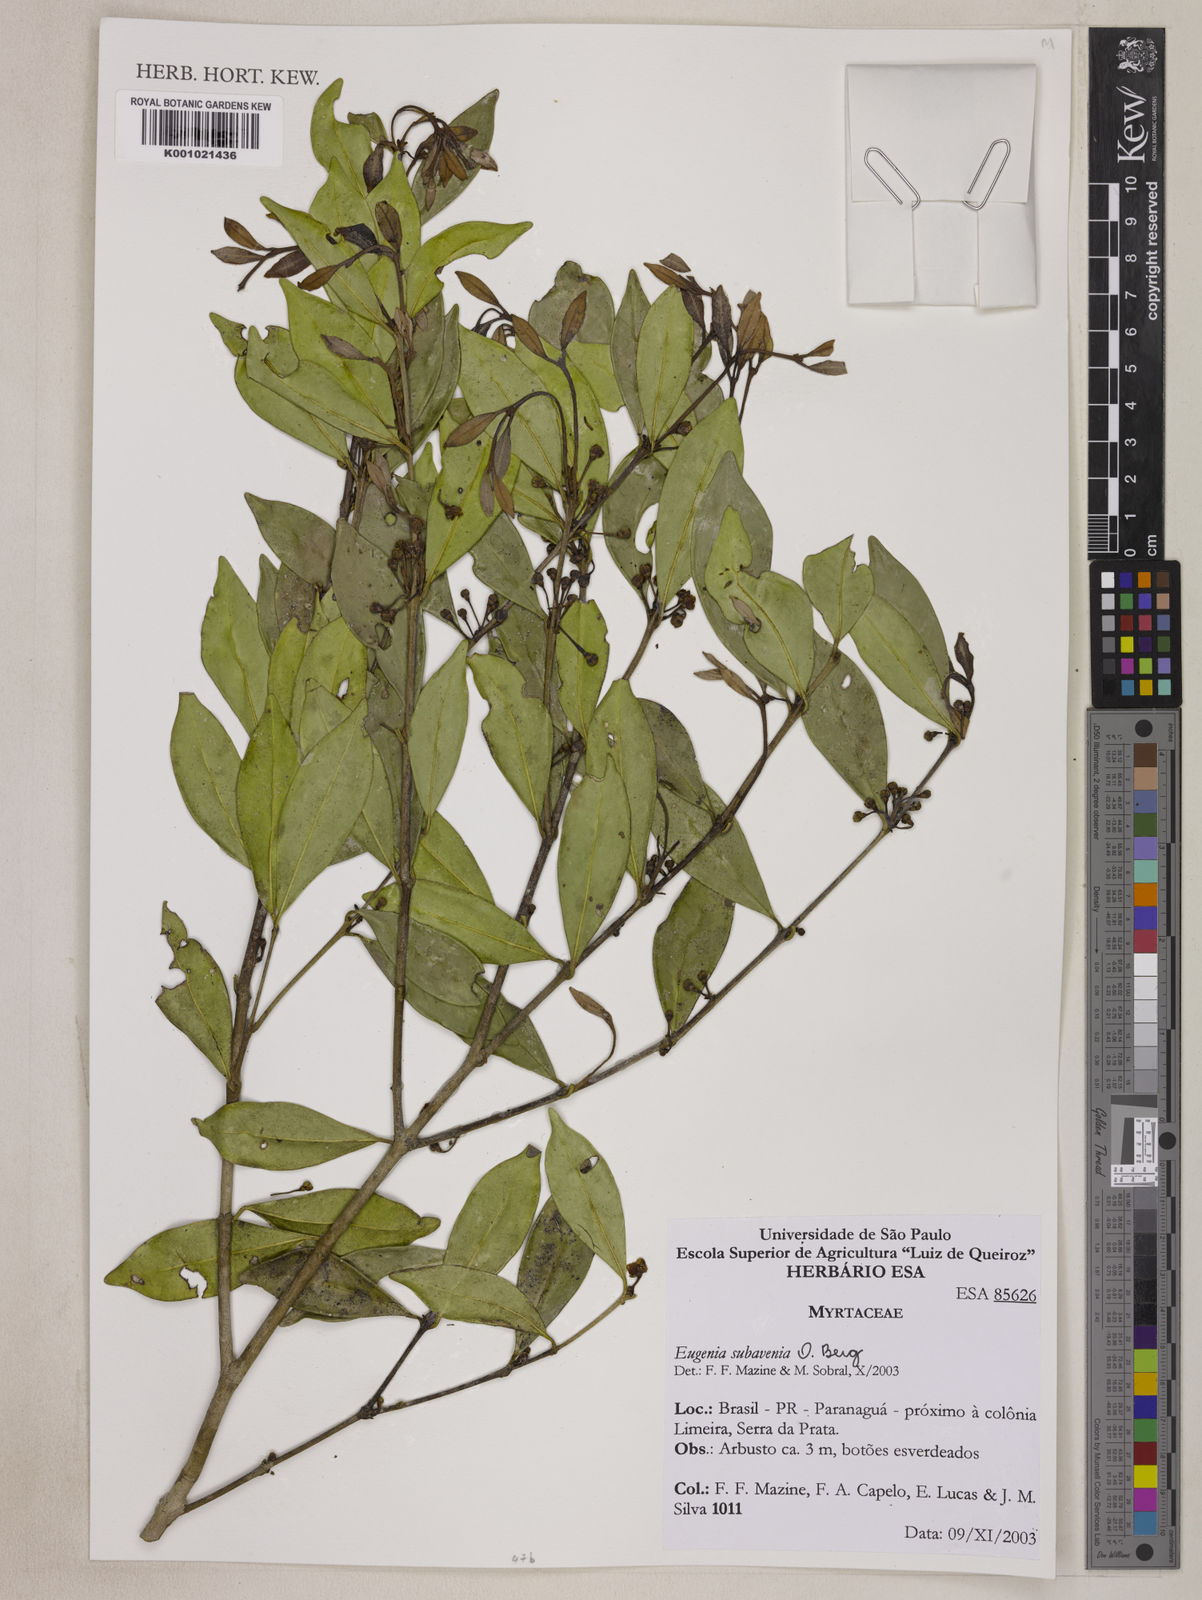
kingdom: Plantae
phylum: Tracheophyta
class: Magnoliopsida
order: Myrtales
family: Myrtaceae
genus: Eugenia
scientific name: Eugenia subavenia
